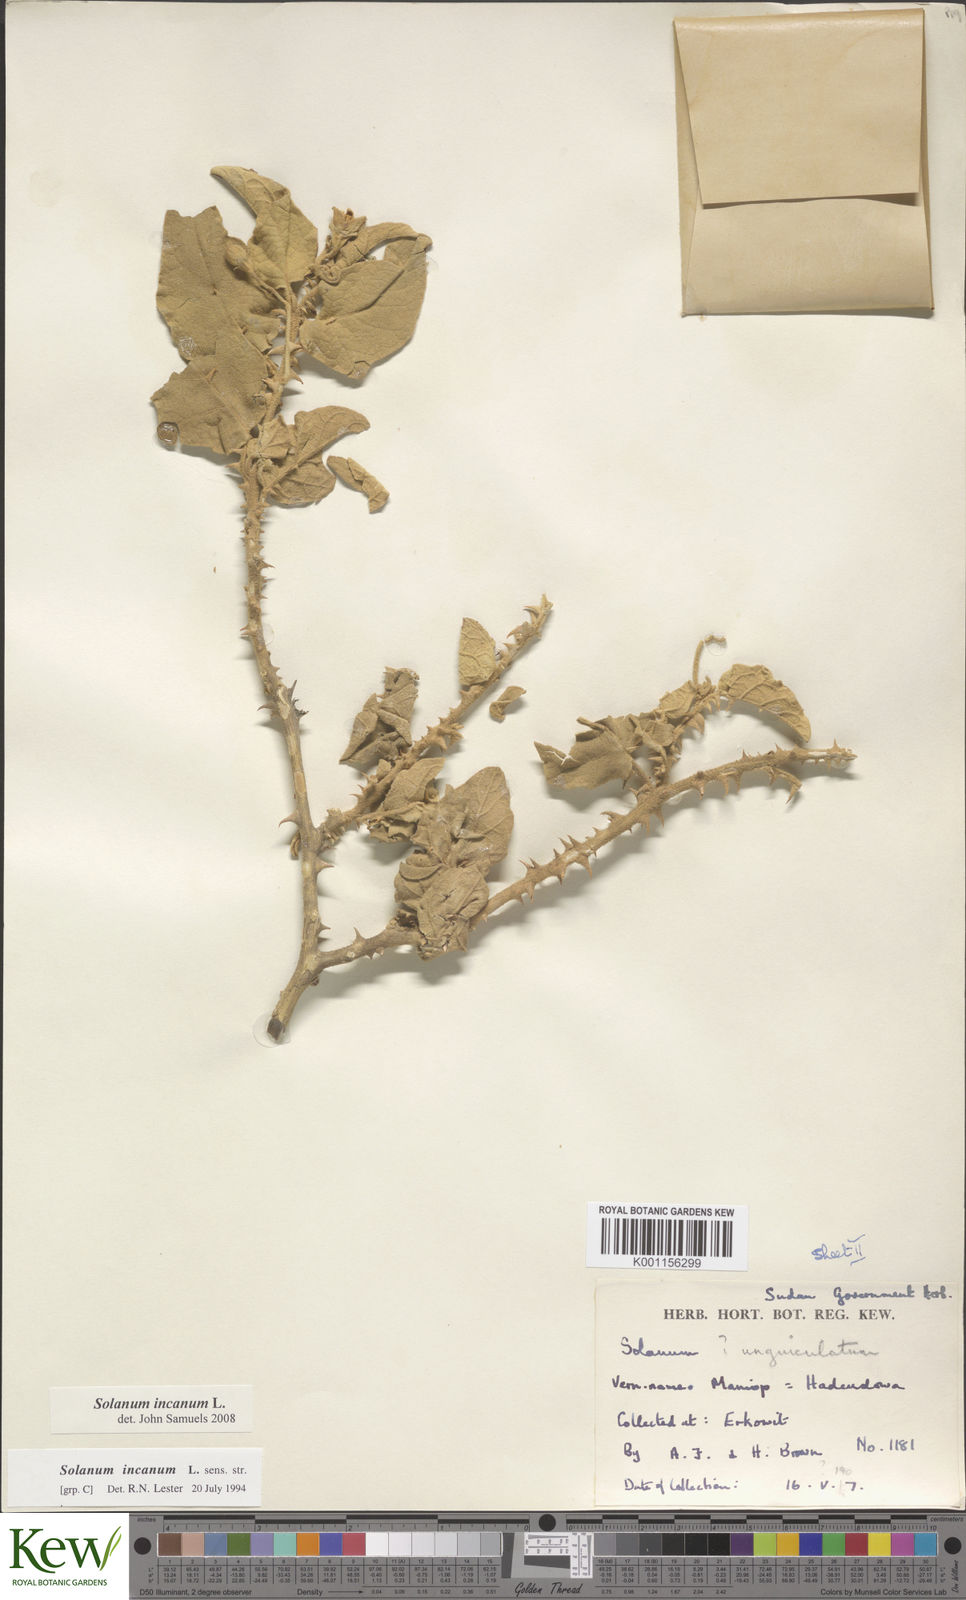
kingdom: Plantae
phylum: Tracheophyta
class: Magnoliopsida
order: Solanales
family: Solanaceae
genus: Solanum
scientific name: Solanum incanum
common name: Bitter apple
